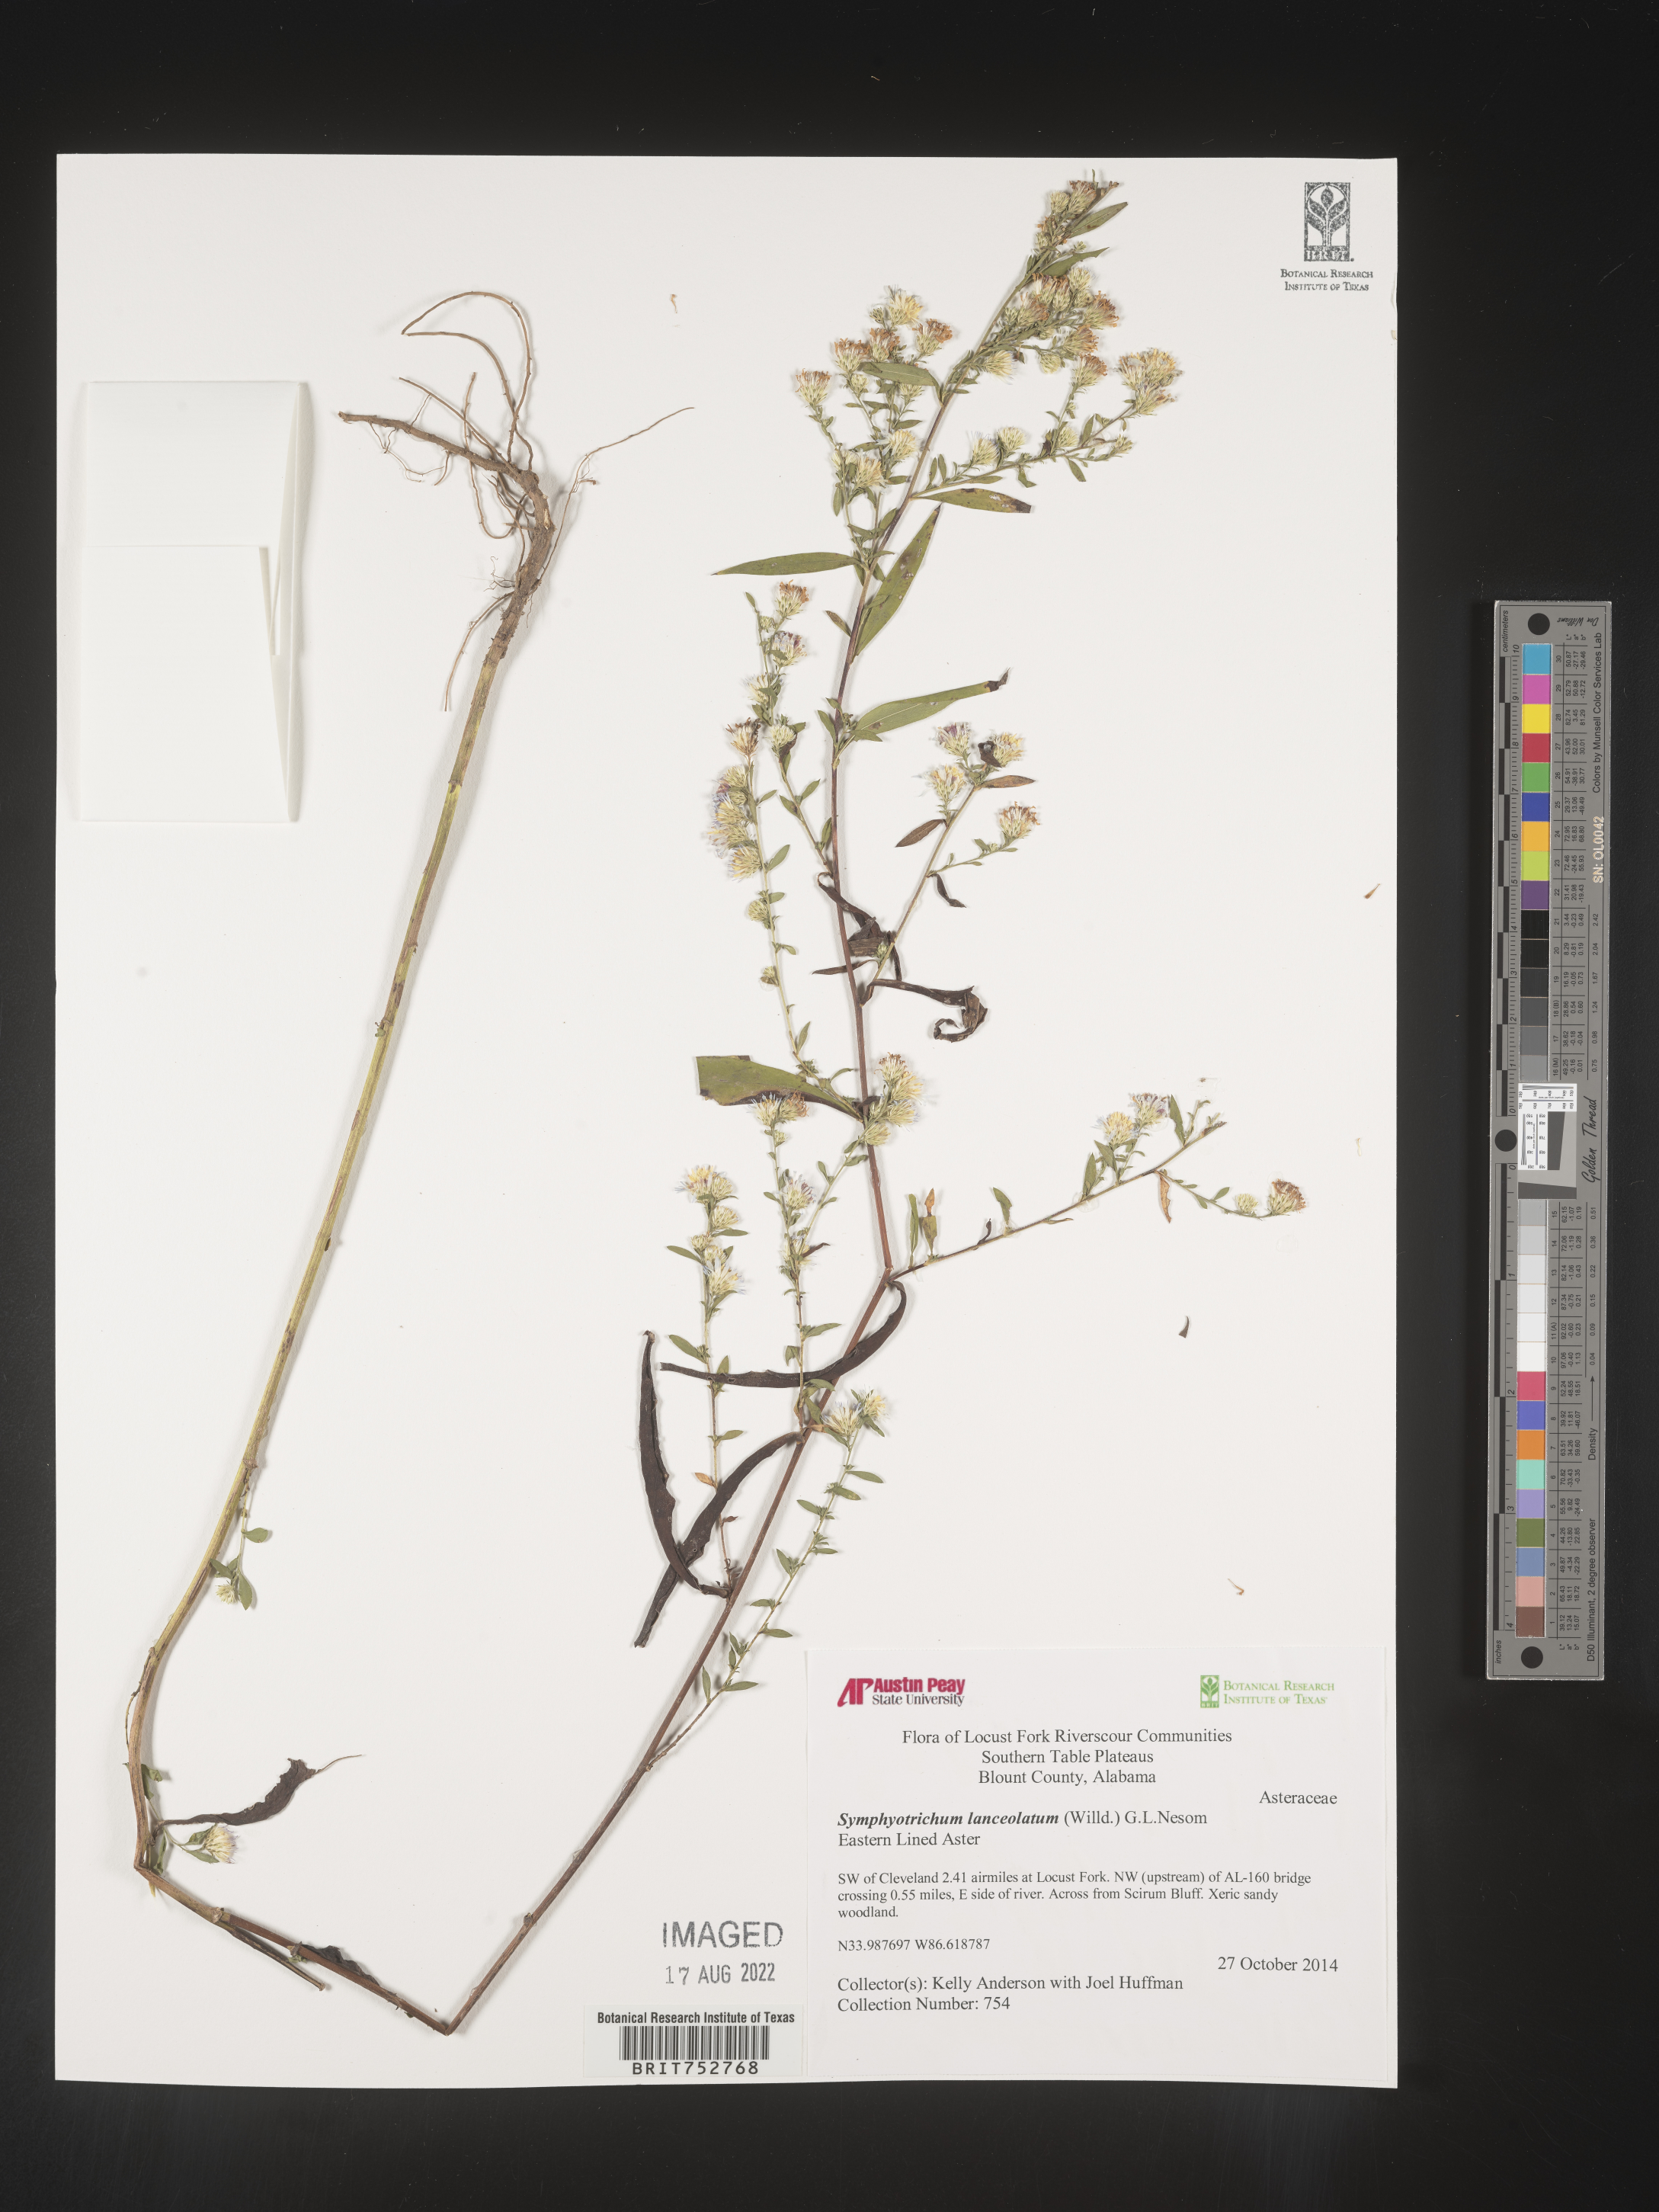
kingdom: Plantae
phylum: Tracheophyta
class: Magnoliopsida
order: Asterales
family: Asteraceae
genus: Symphyotrichum
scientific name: Symphyotrichum lanceolatum
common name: Panicled aster
